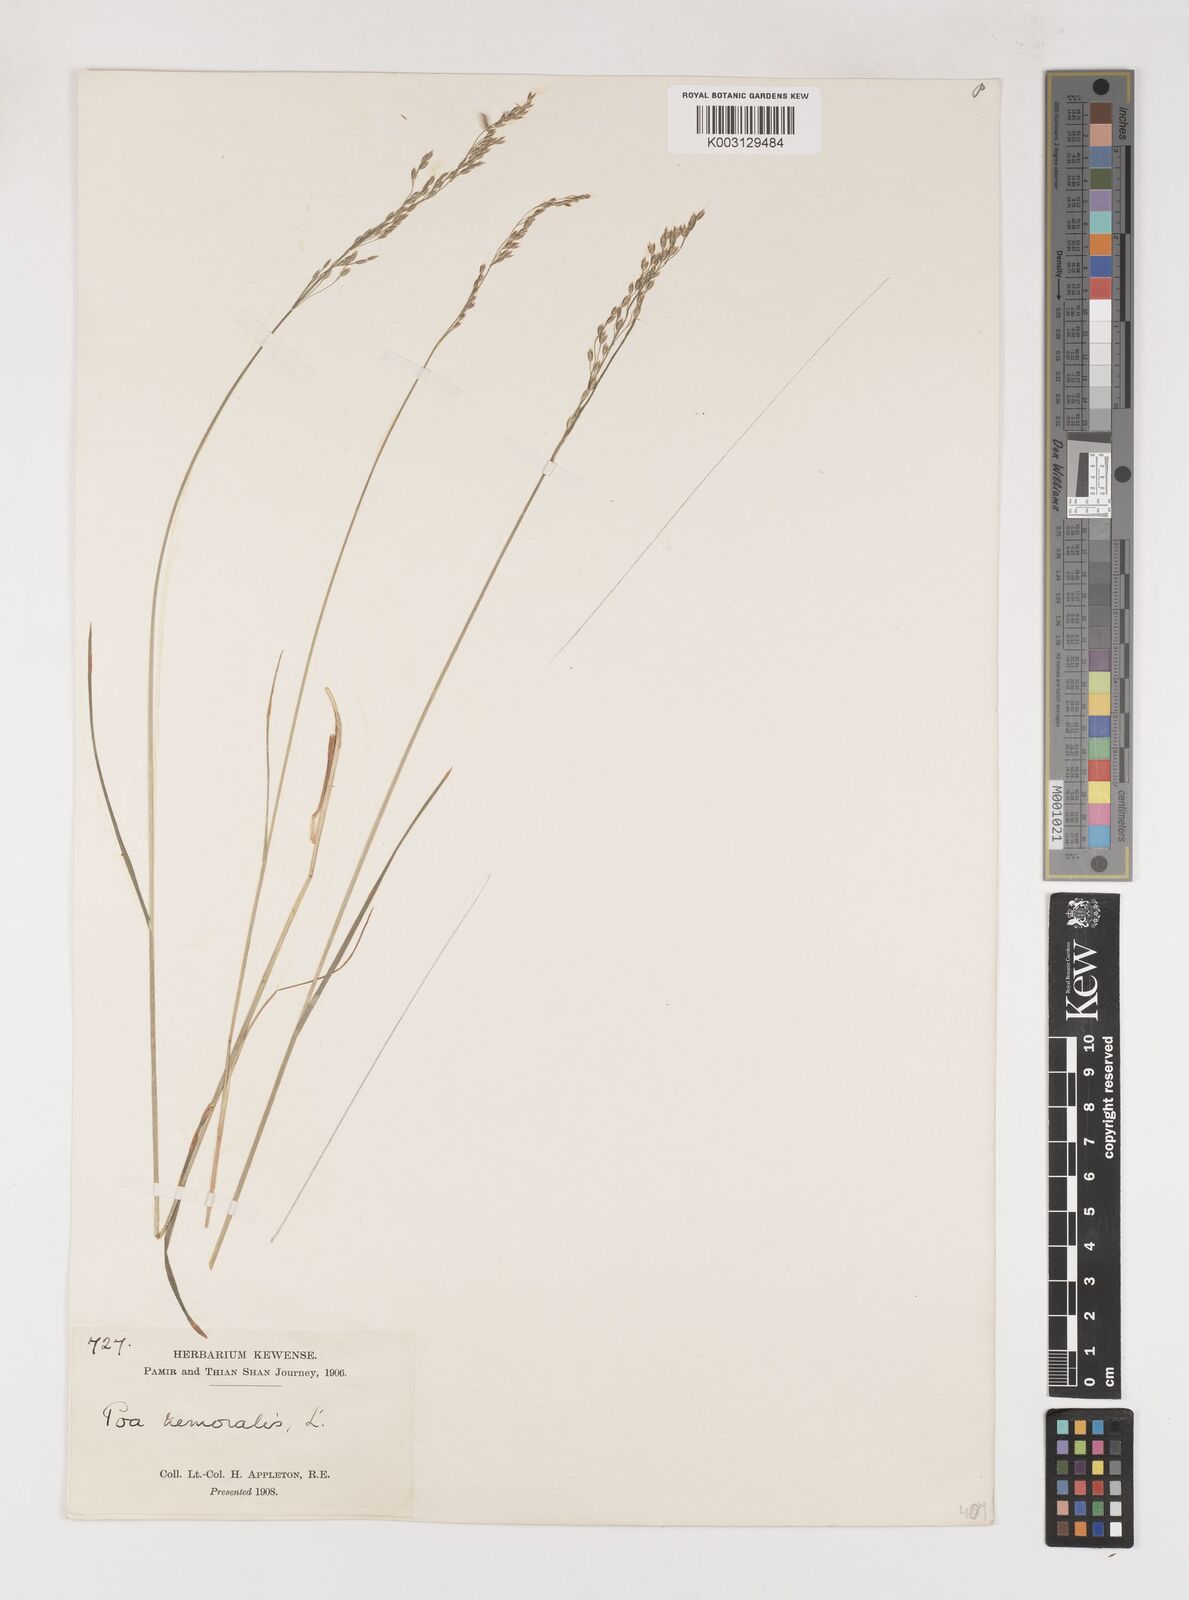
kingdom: Plantae
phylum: Tracheophyta
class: Liliopsida
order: Poales
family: Poaceae
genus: Poa
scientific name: Poa glauca
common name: Glaucous bluegrass
